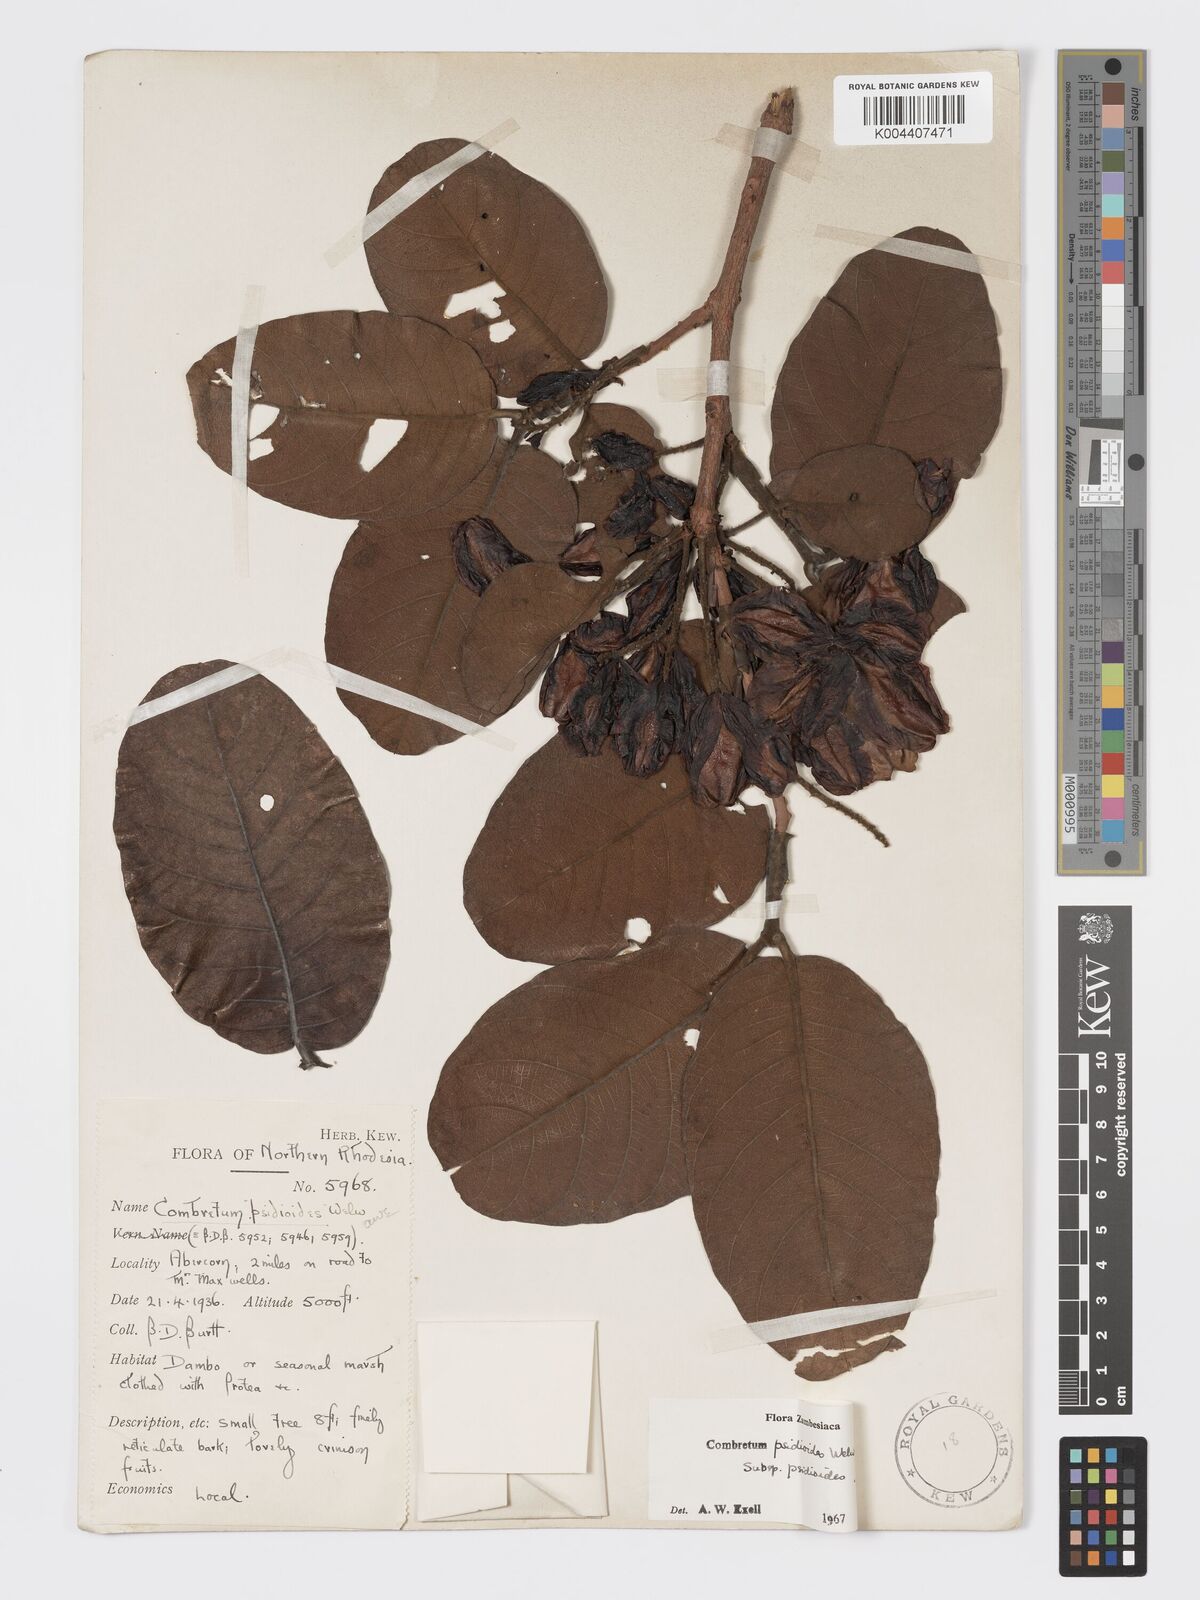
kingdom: Plantae
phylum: Tracheophyta
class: Magnoliopsida
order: Myrtales
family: Combretaceae
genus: Combretum
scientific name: Combretum psidioides
